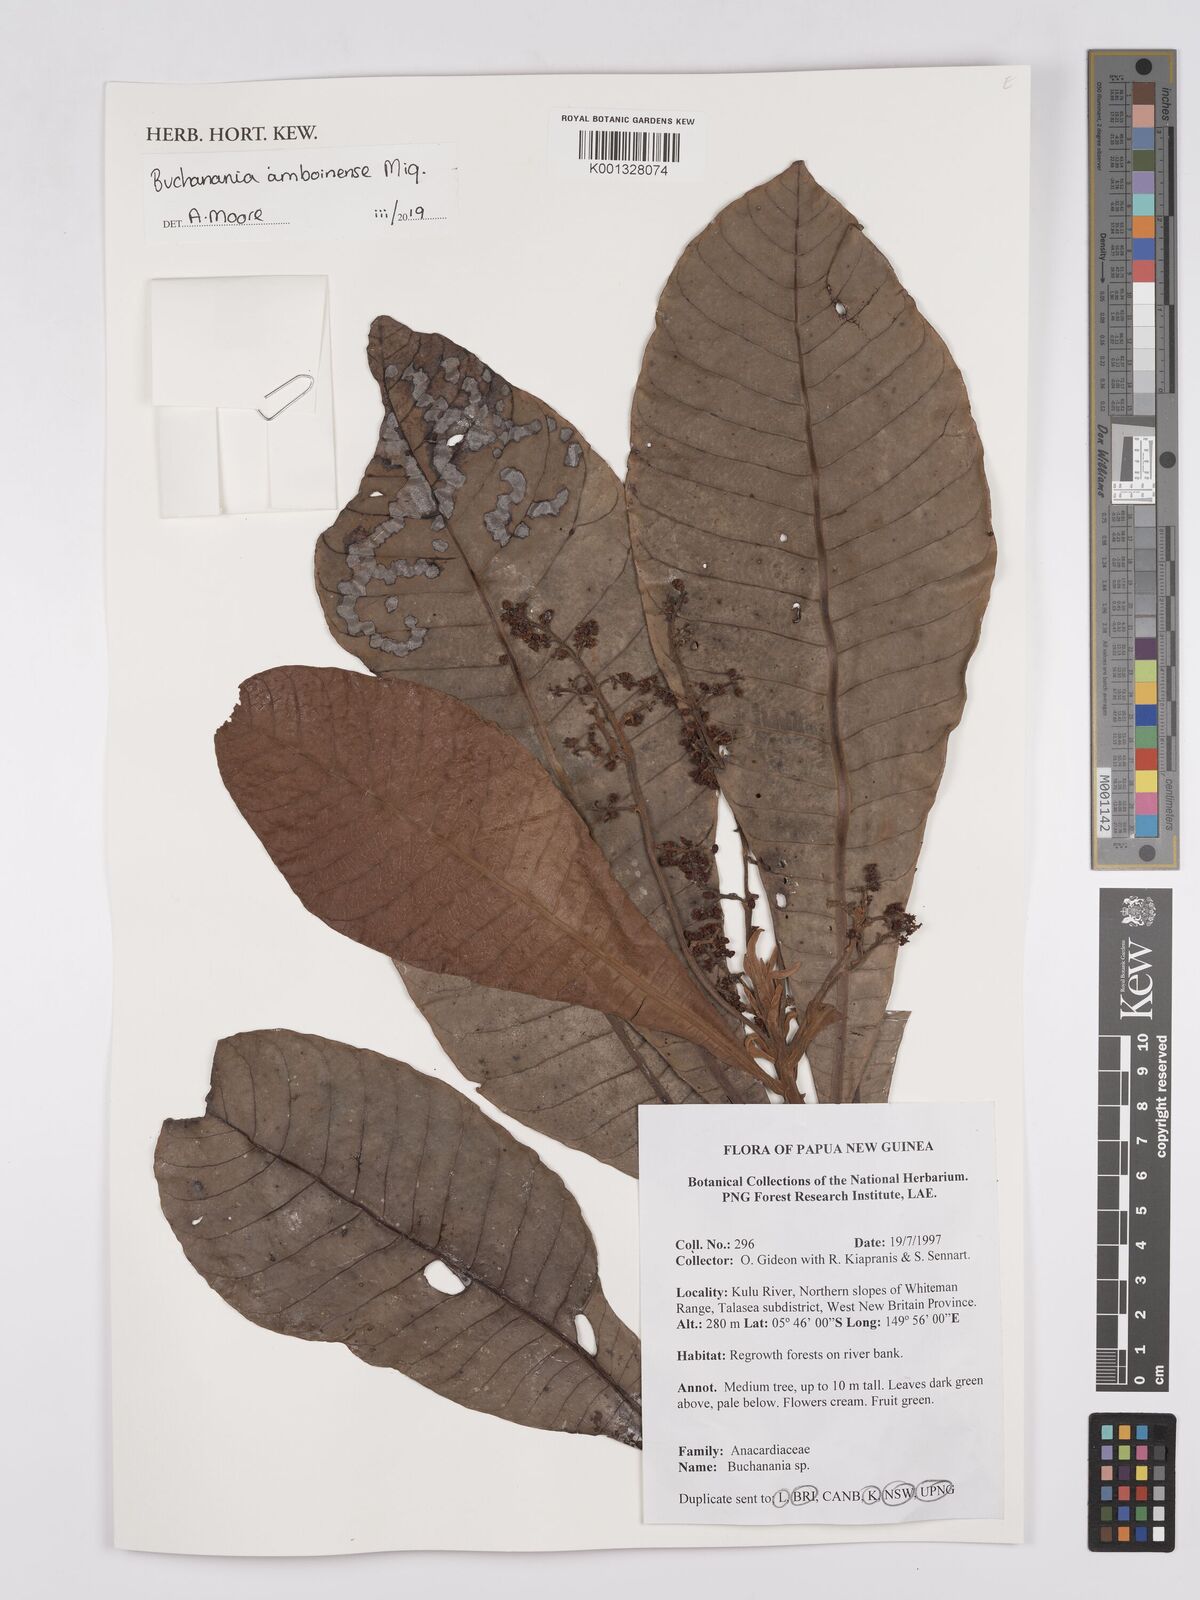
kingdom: Plantae
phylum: Tracheophyta
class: Magnoliopsida
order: Sapindales
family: Anacardiaceae
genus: Buchanania
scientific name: Buchanania
